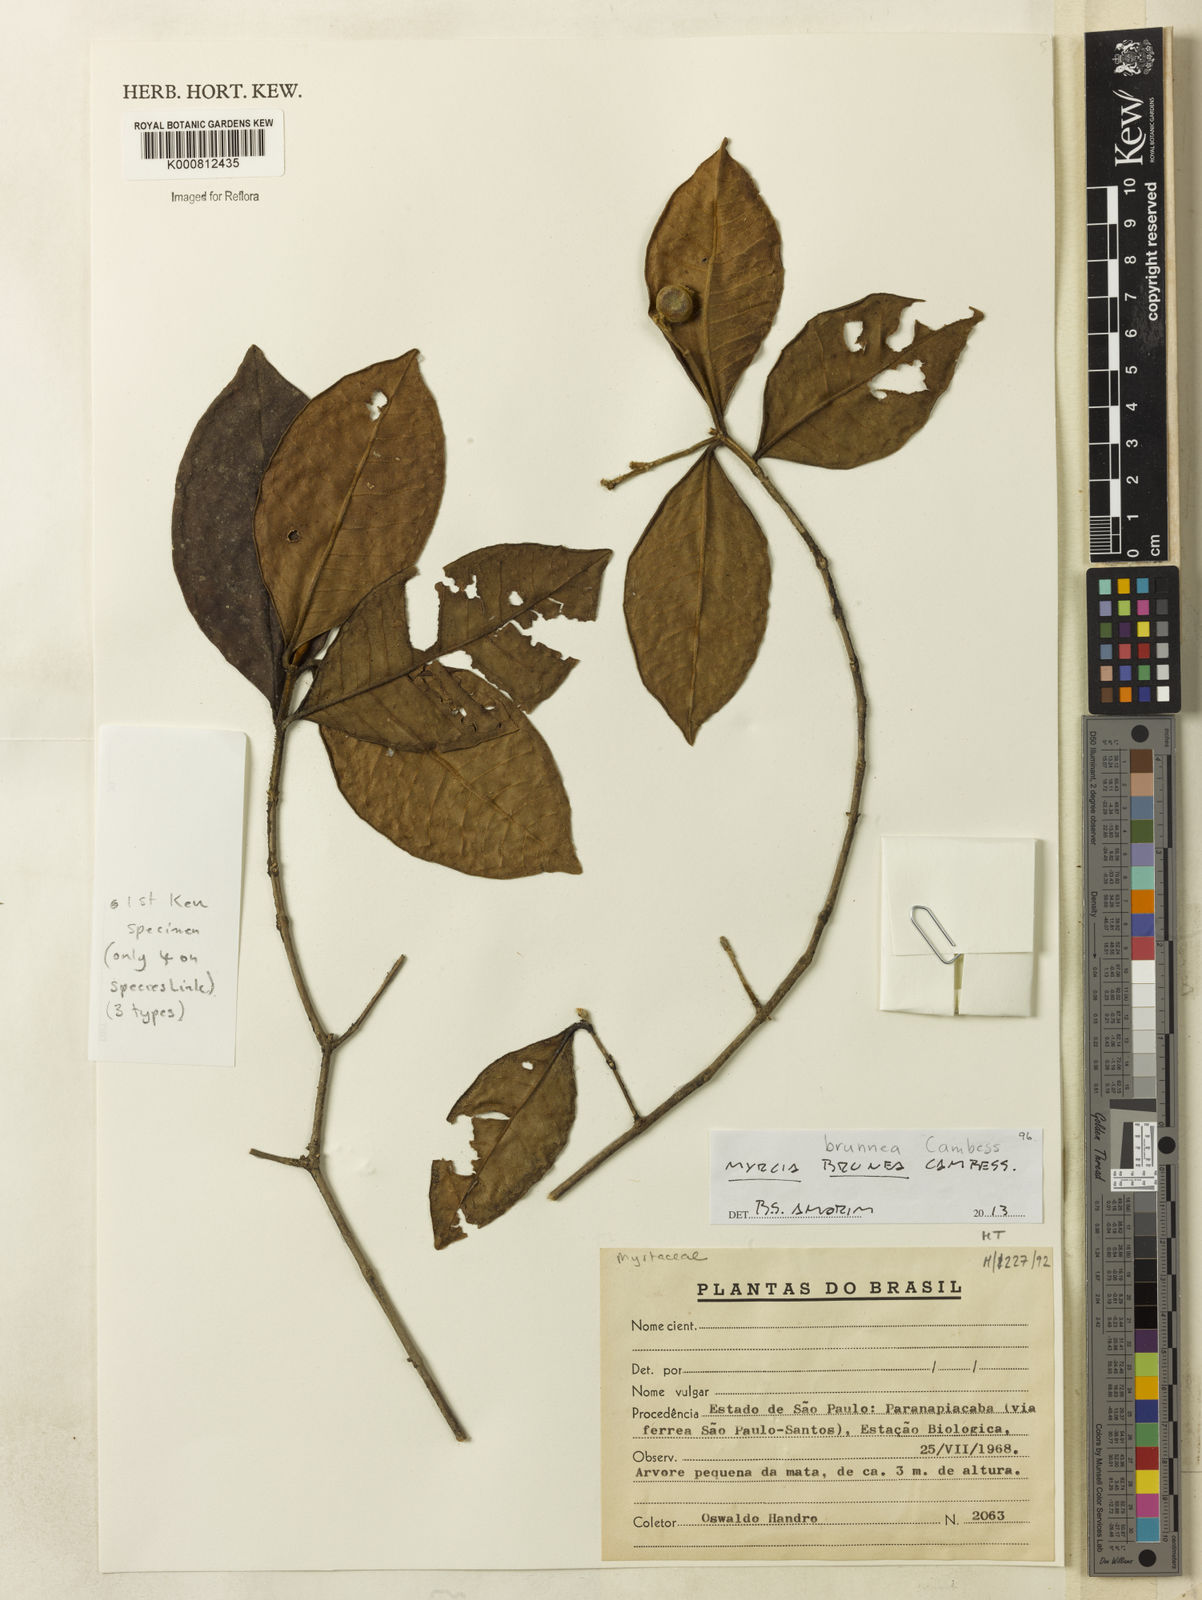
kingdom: Plantae
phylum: Tracheophyta
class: Magnoliopsida
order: Myrtales
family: Myrtaceae
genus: Myrcia
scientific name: Myrcia brunnea
